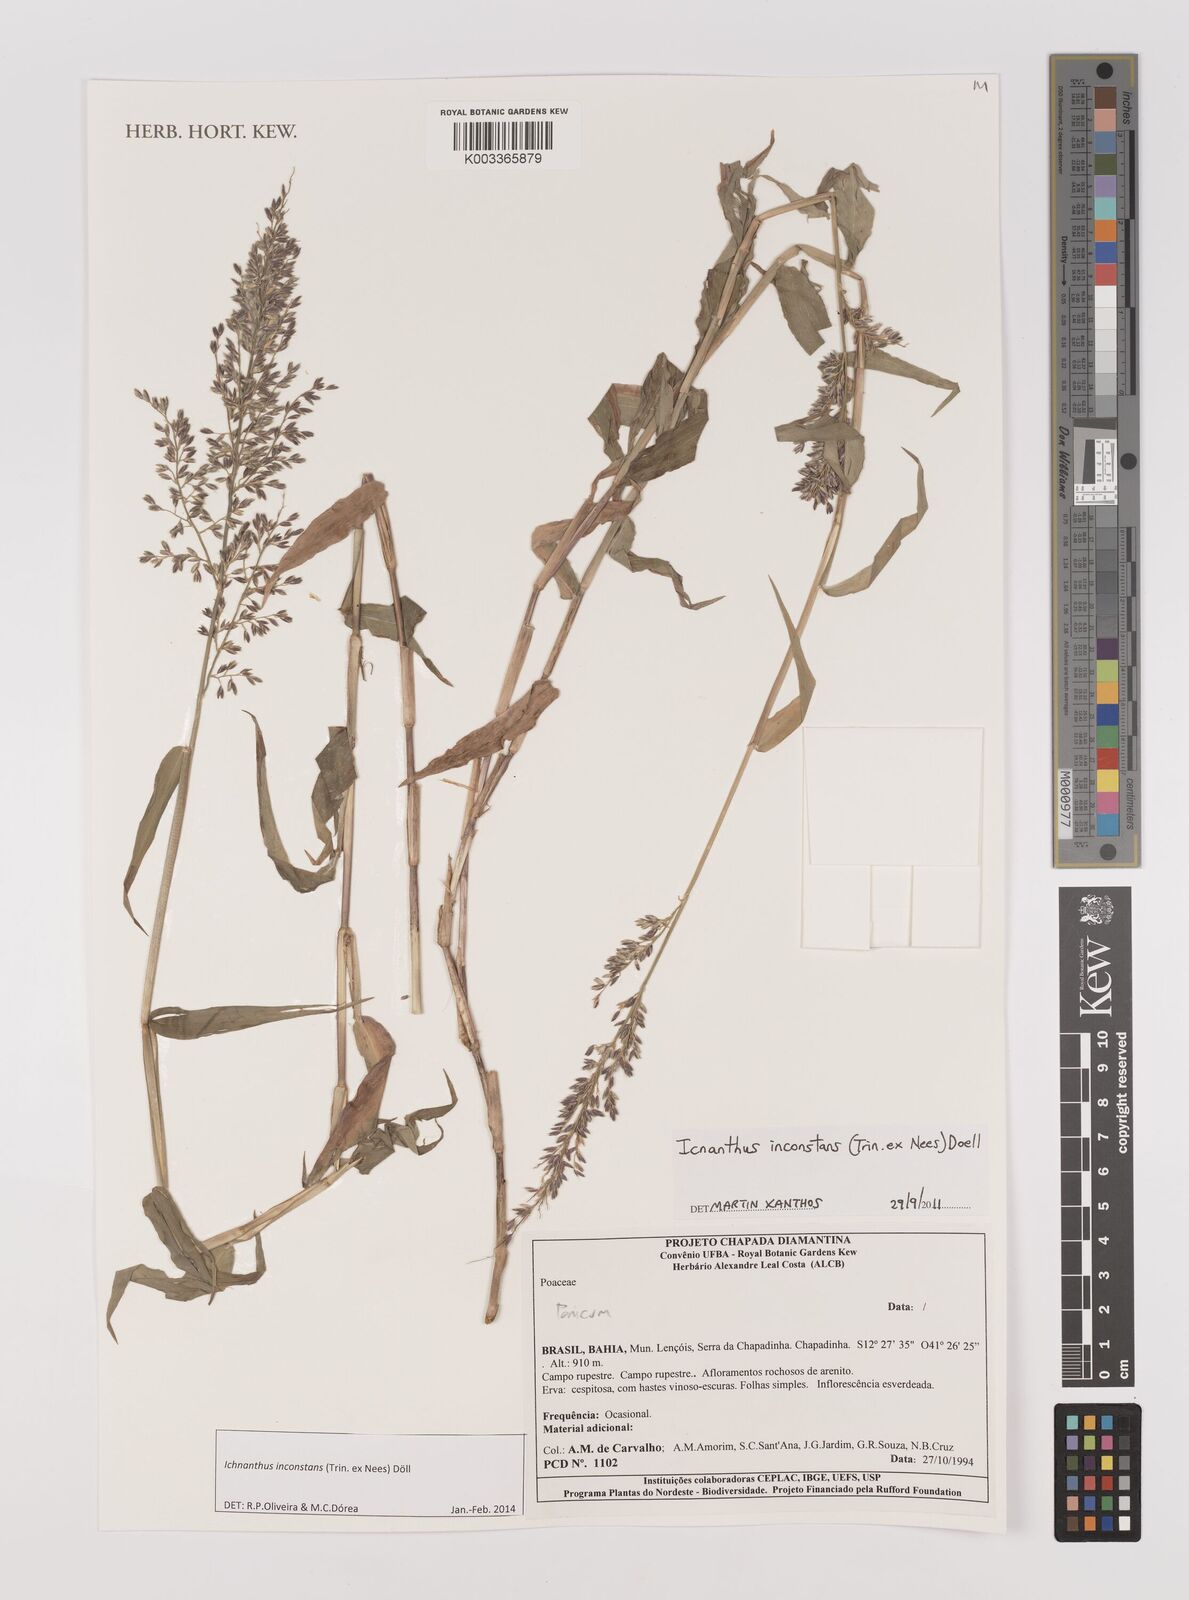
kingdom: Plantae
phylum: Tracheophyta
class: Liliopsida
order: Poales
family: Poaceae
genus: Ichnanthus
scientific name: Ichnanthus inconstans
